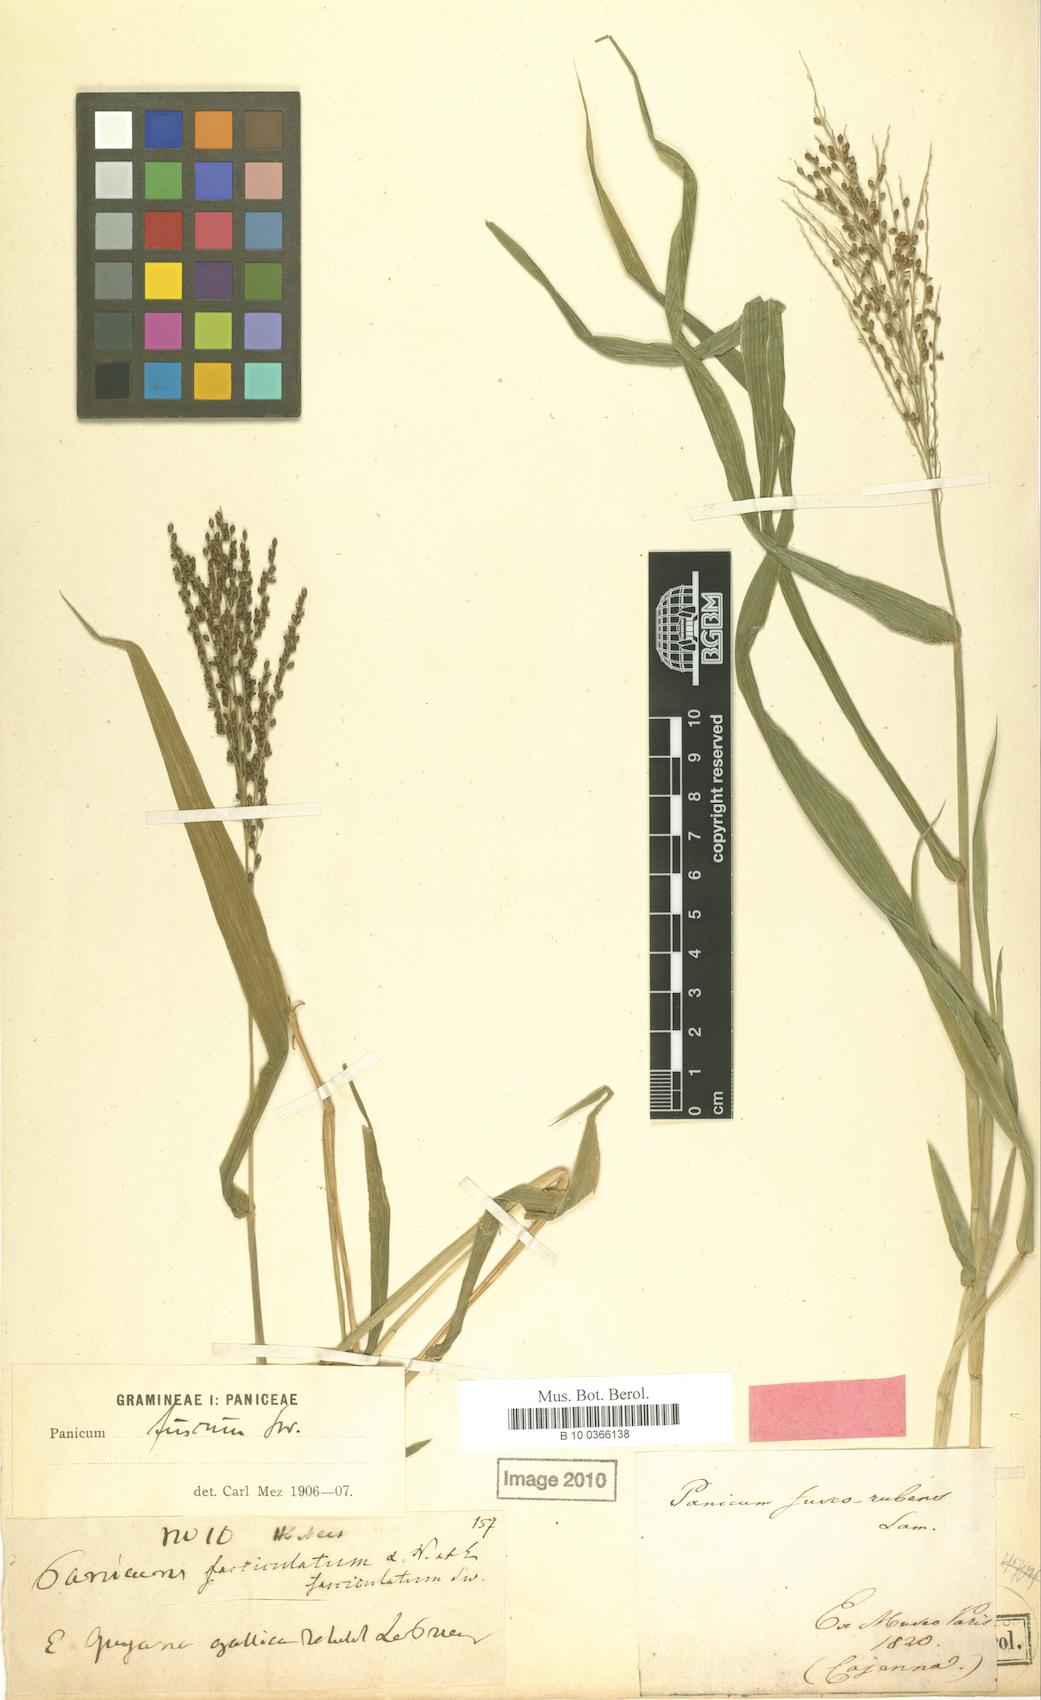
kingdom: Plantae
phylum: Tracheophyta
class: Liliopsida
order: Poales
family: Poaceae
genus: Urochloa
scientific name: Urochloa fusca
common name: Browntop signal grass
